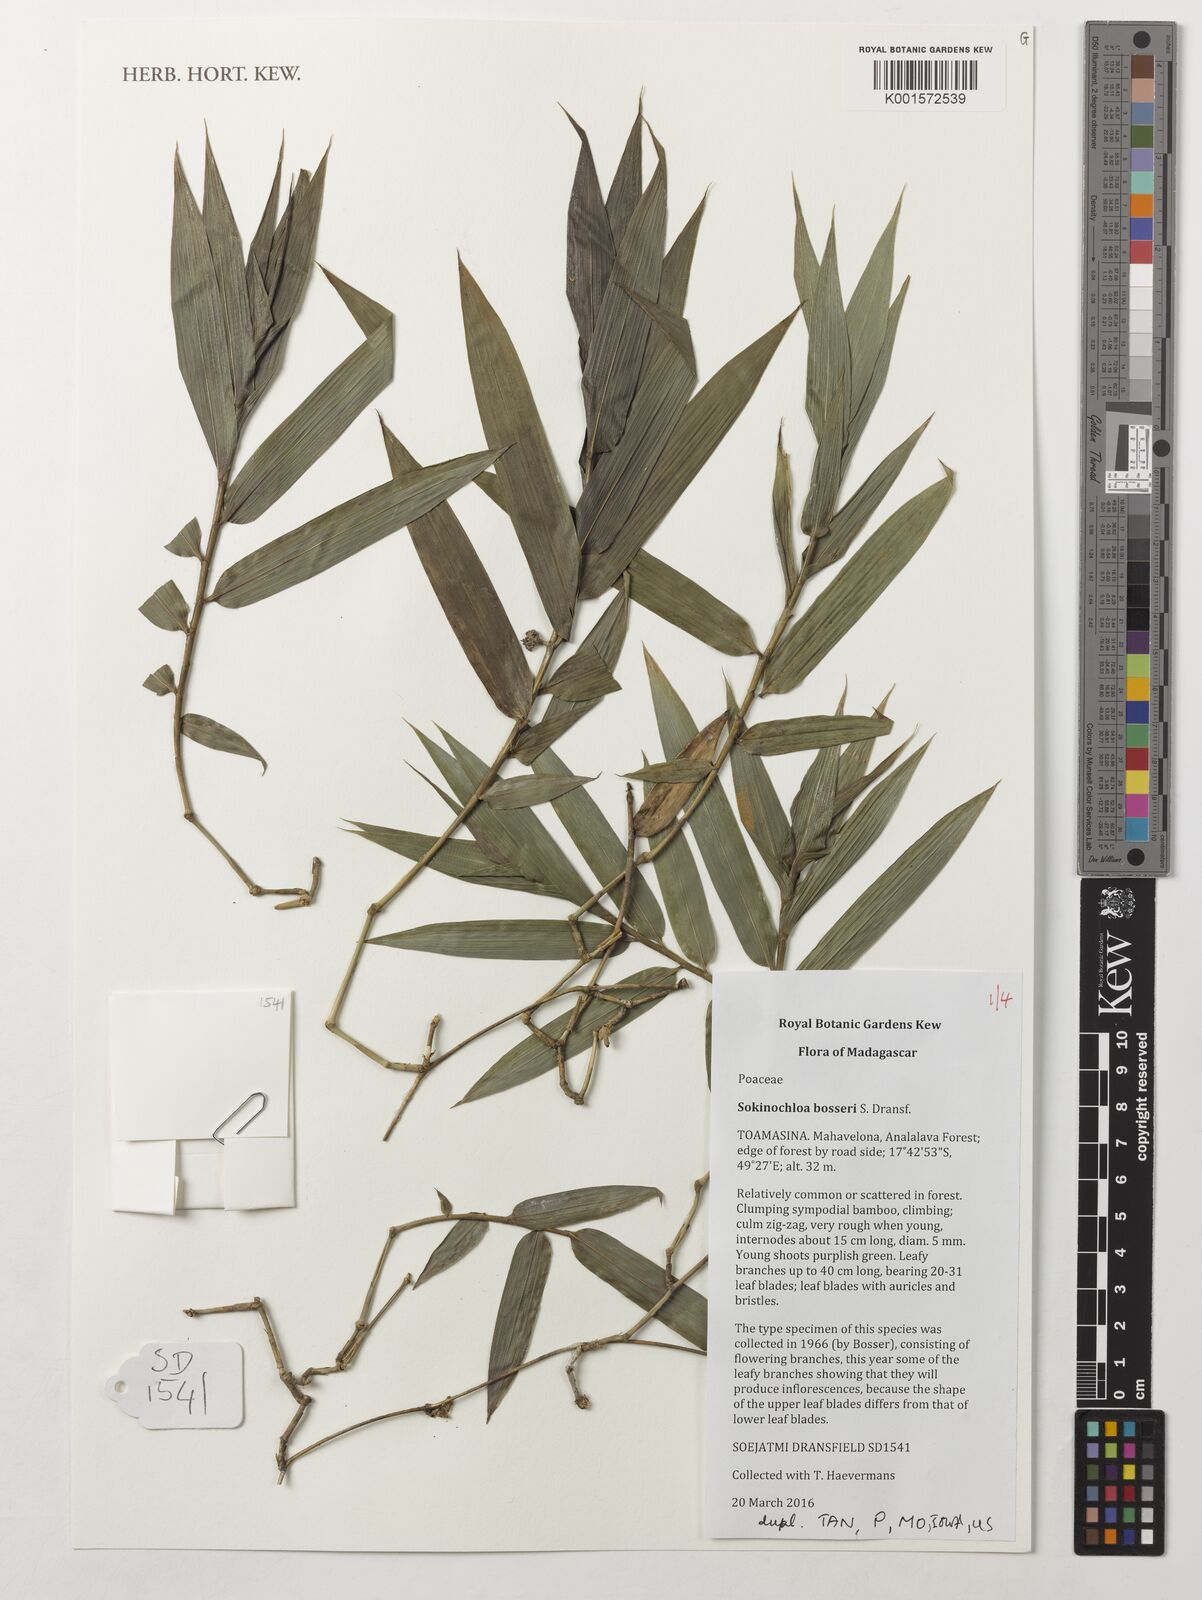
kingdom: Plantae
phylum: Tracheophyta
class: Liliopsida
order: Poales
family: Poaceae
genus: Sokinochloa
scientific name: Sokinochloa bosseri
